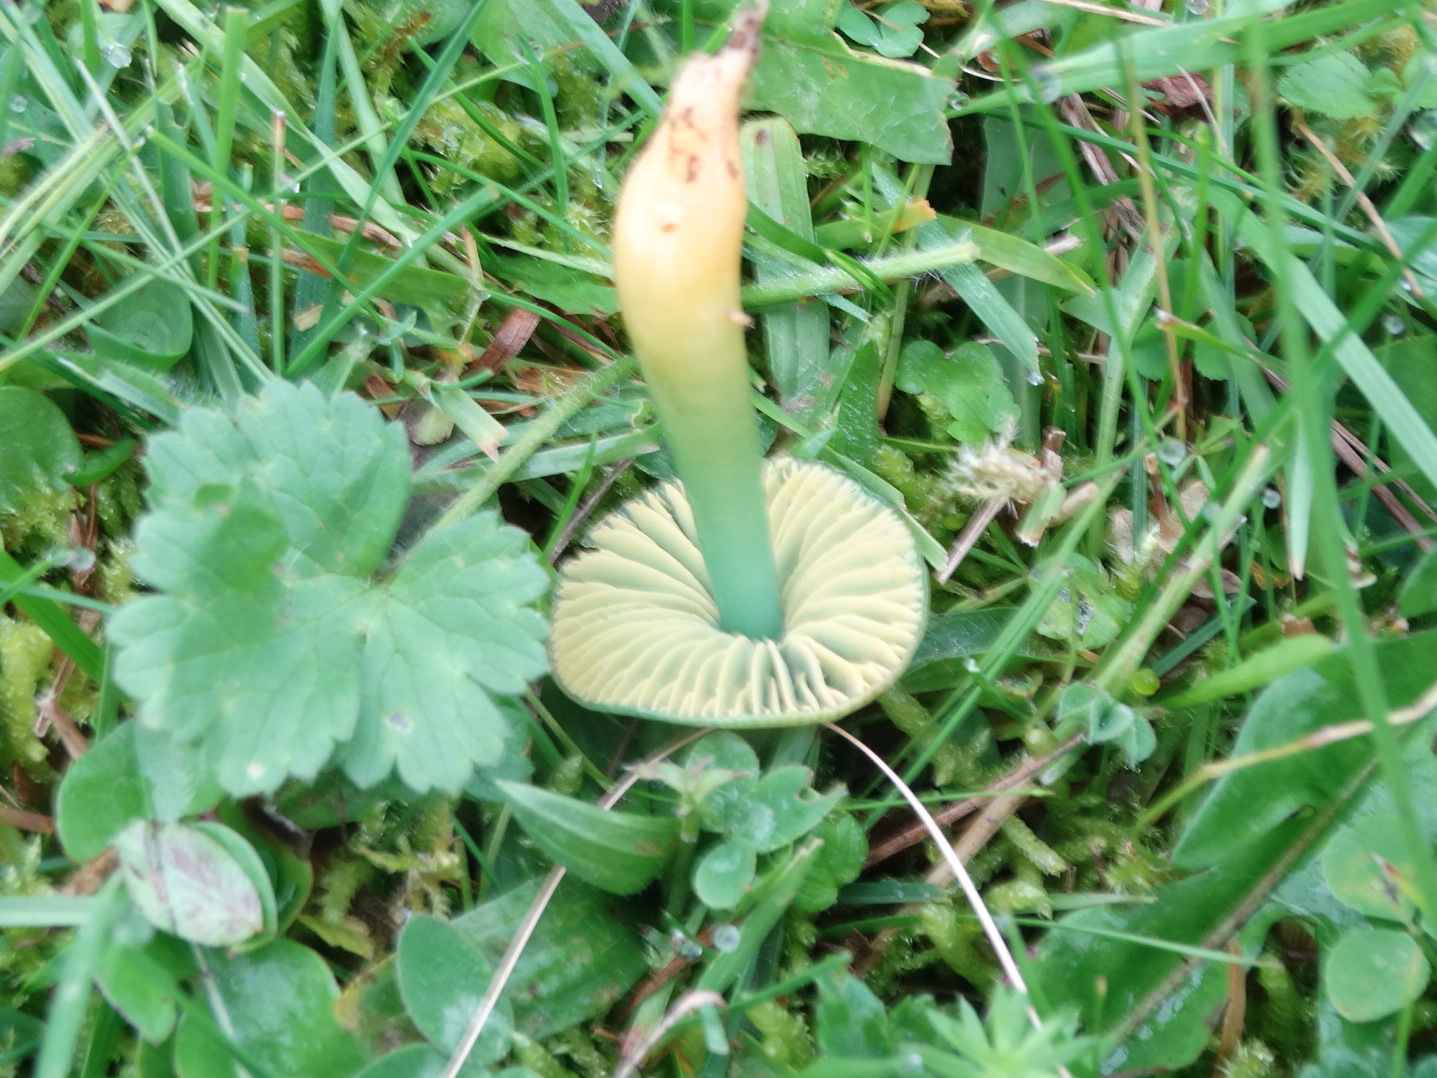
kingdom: Fungi
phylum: Basidiomycota
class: Agaricomycetes
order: Agaricales
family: Hygrophoraceae
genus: Gliophorus
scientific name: Gliophorus psittacinus
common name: papegøje-vokshat
